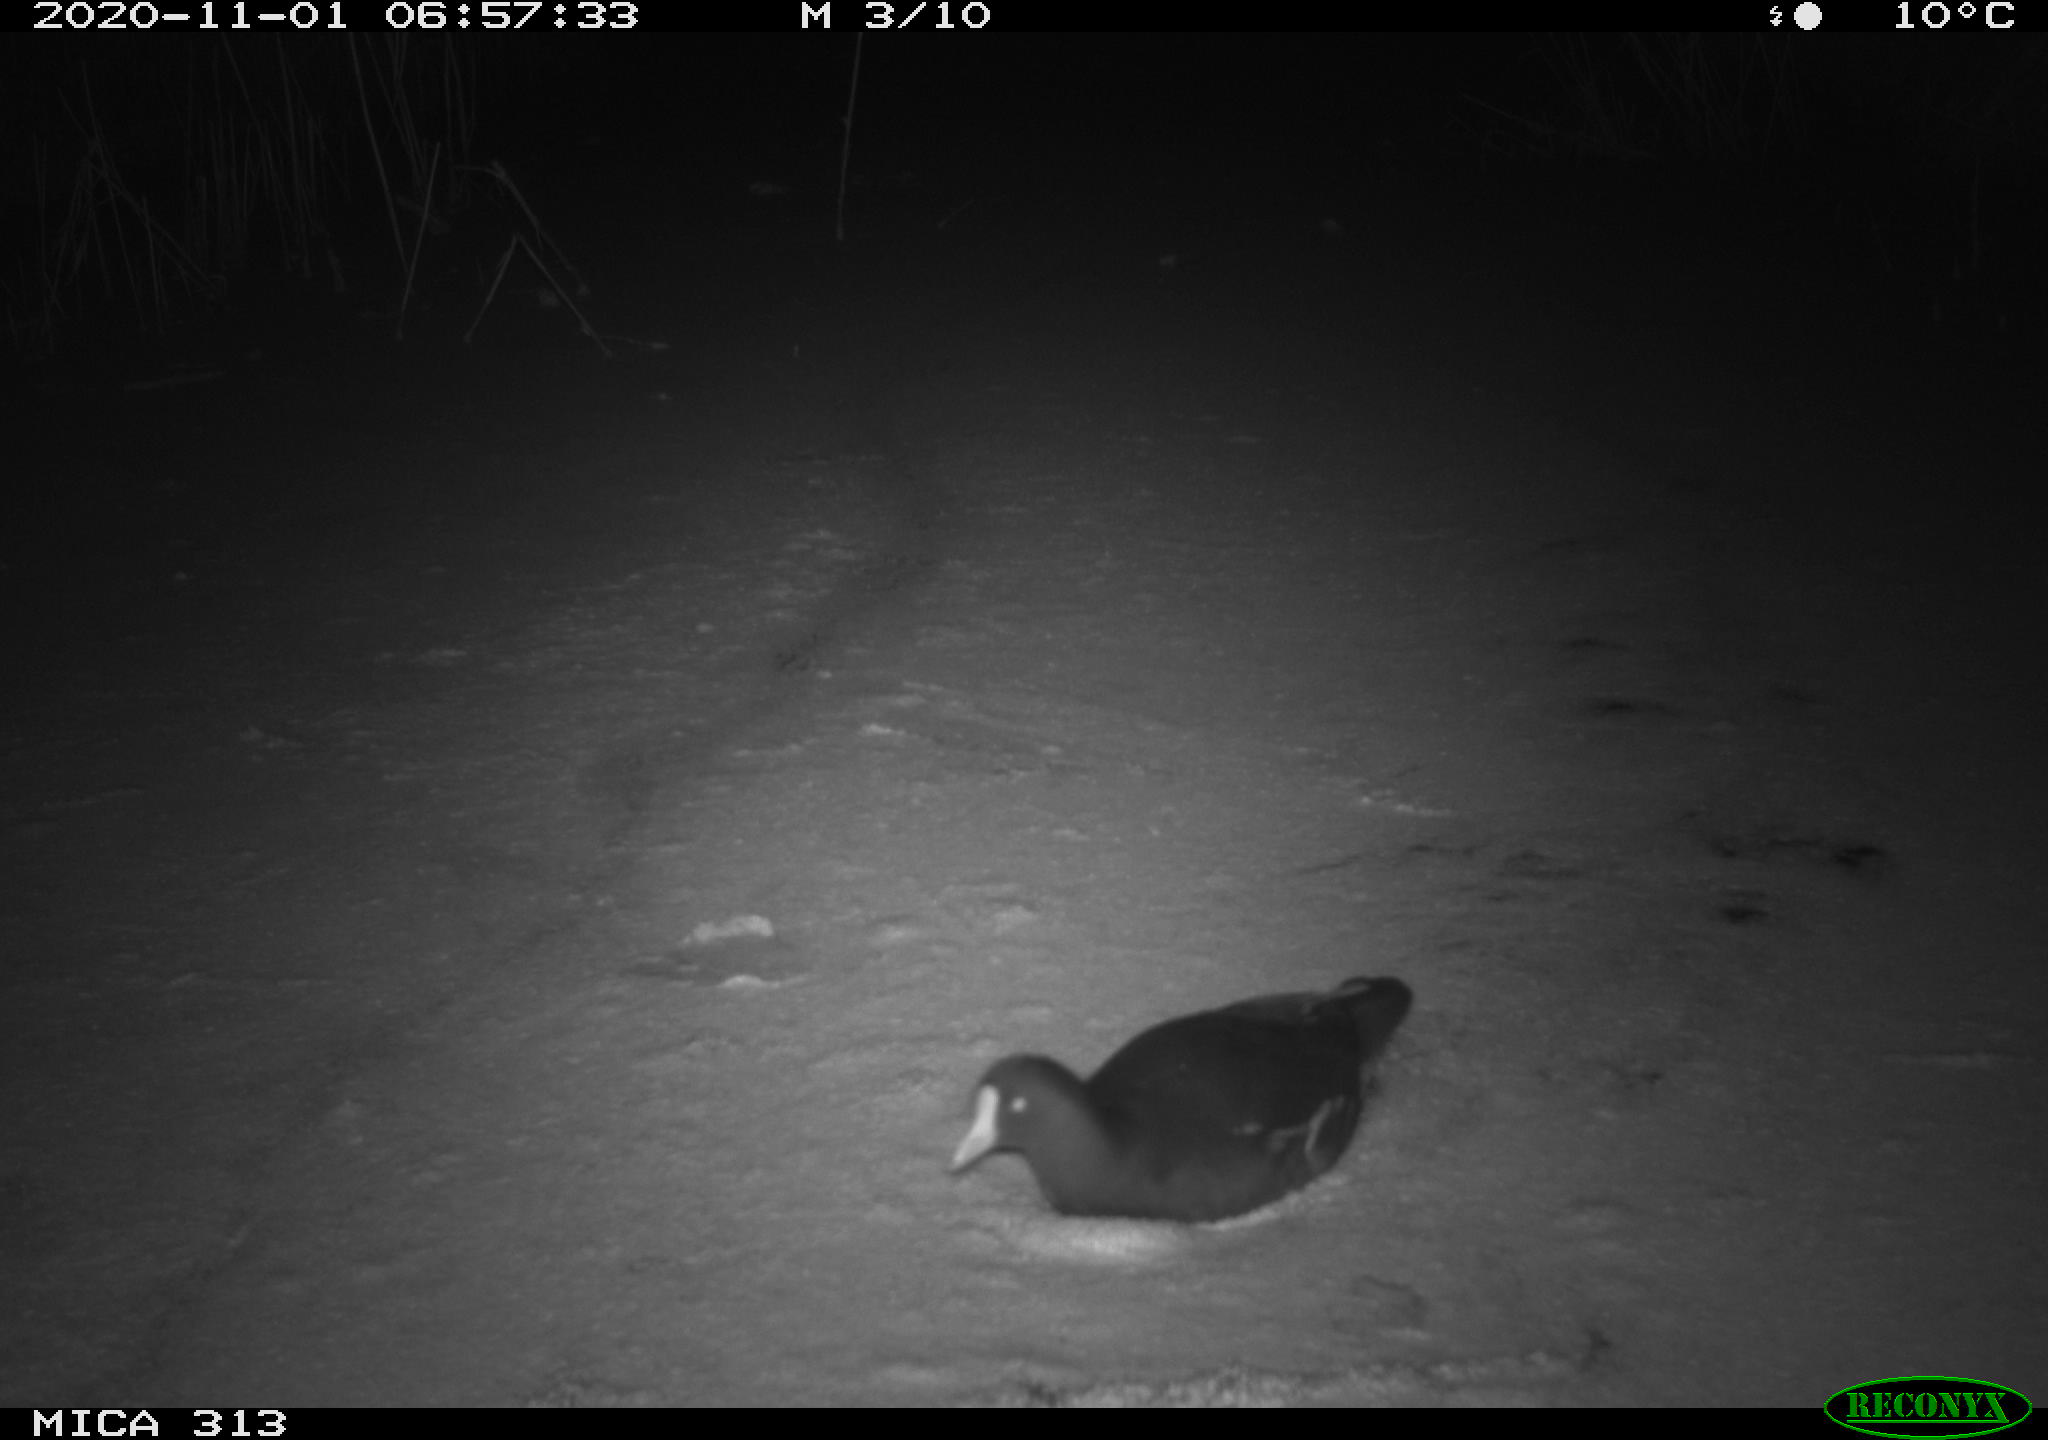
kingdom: Animalia
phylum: Chordata
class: Aves
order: Gruiformes
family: Rallidae
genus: Gallinula
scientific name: Gallinula chloropus
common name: Common moorhen
